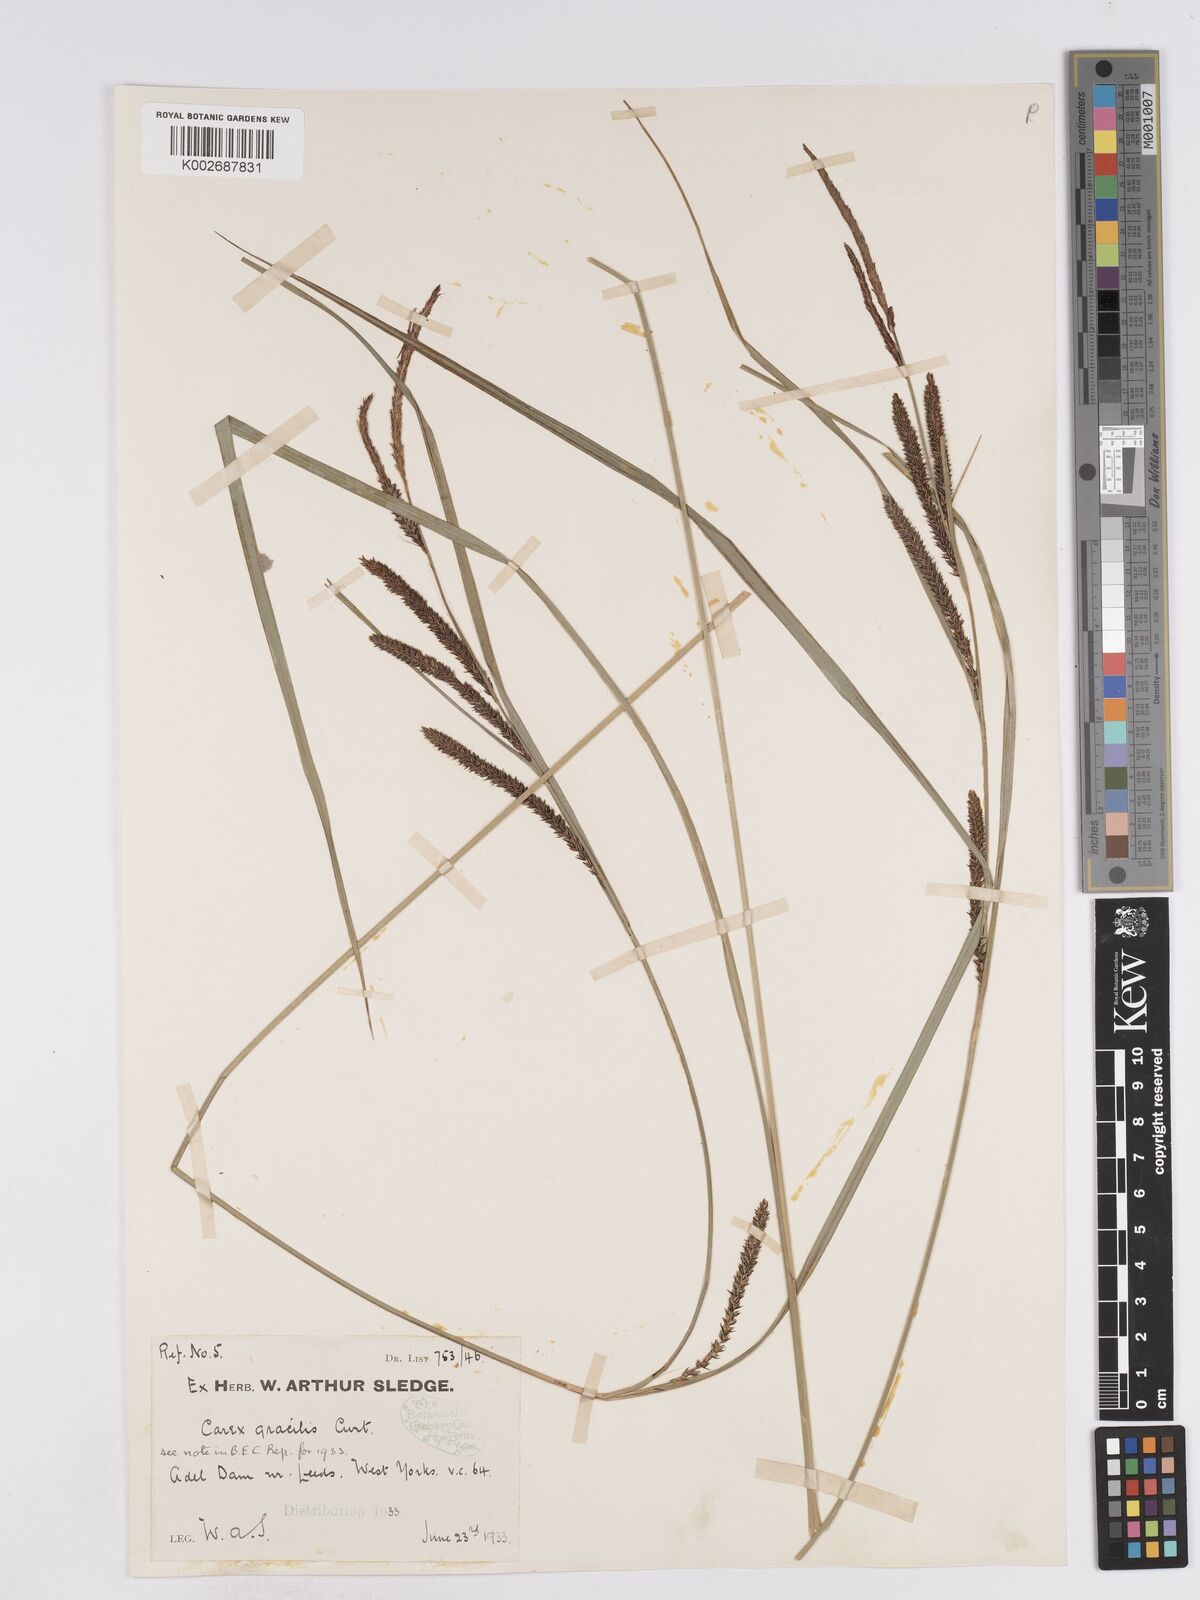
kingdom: Plantae
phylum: Tracheophyta
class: Liliopsida
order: Poales
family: Cyperaceae
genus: Carex
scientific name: Carex acuta
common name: Slender tufted-sedge
